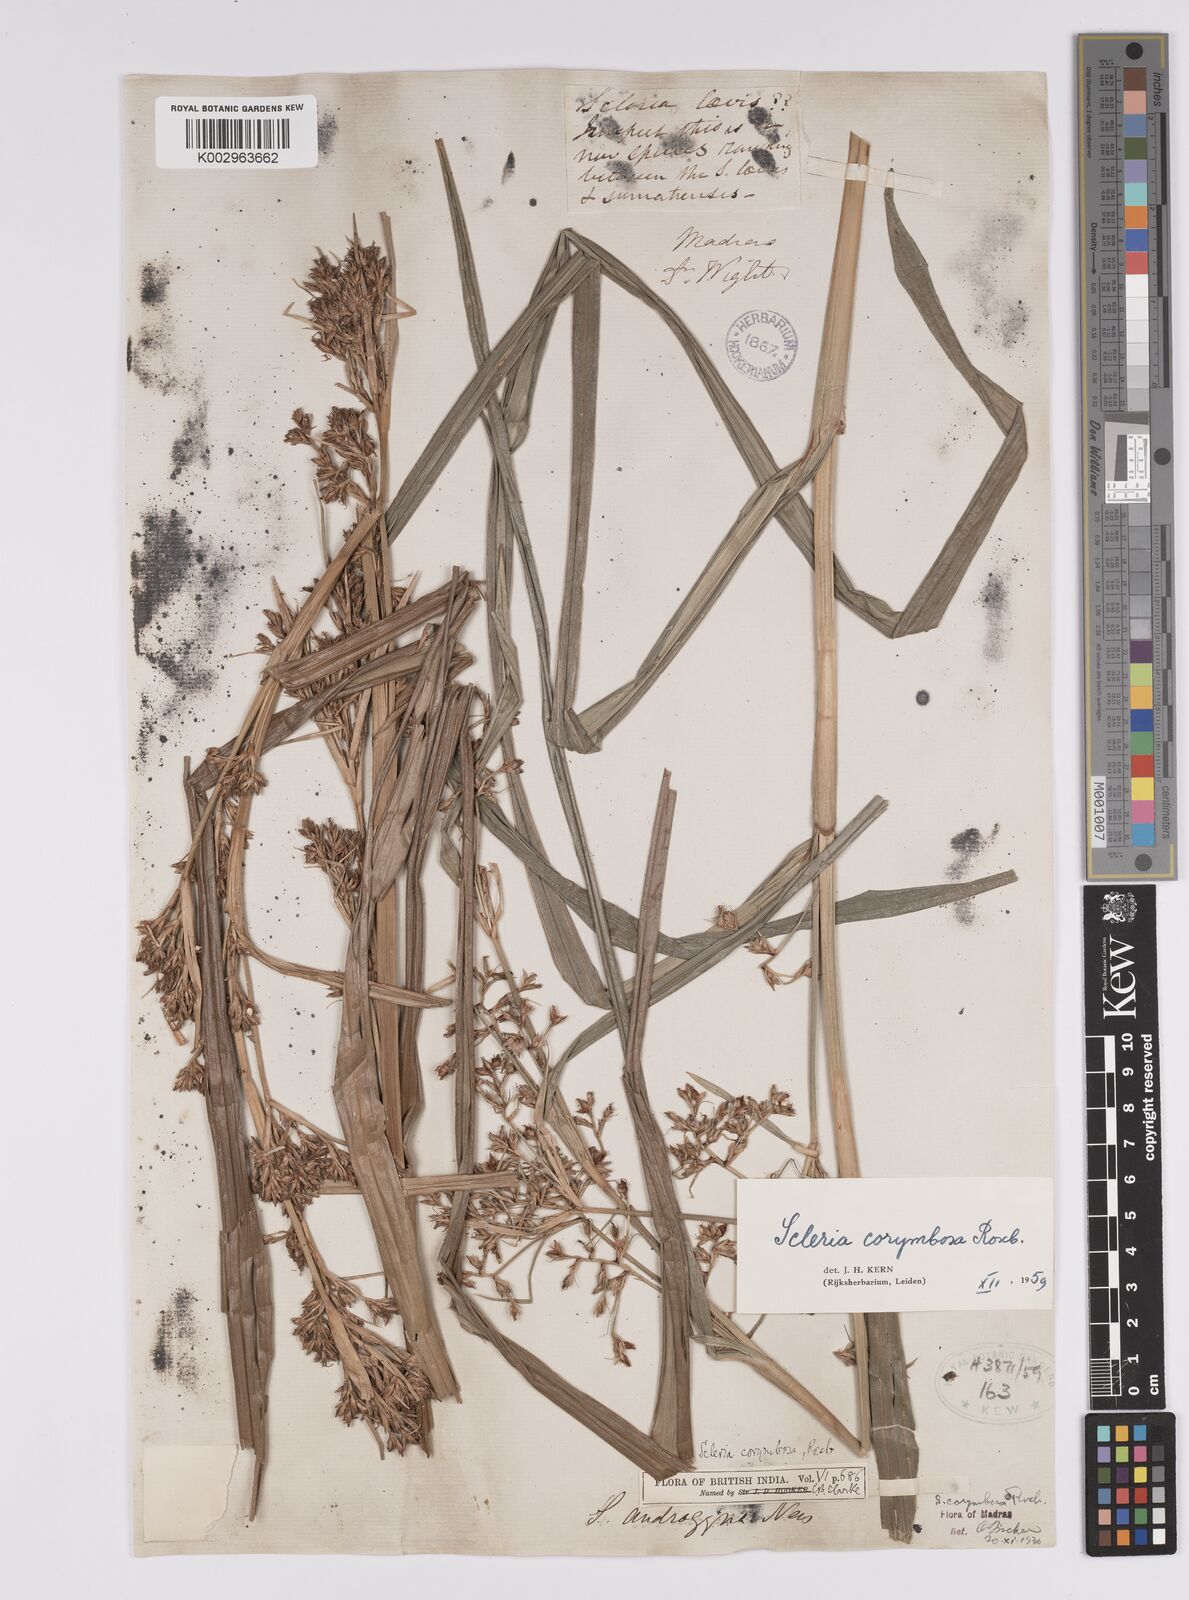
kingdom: Plantae
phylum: Tracheophyta
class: Liliopsida
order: Poales
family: Cyperaceae
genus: Scleria
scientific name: Scleria corymbosa
